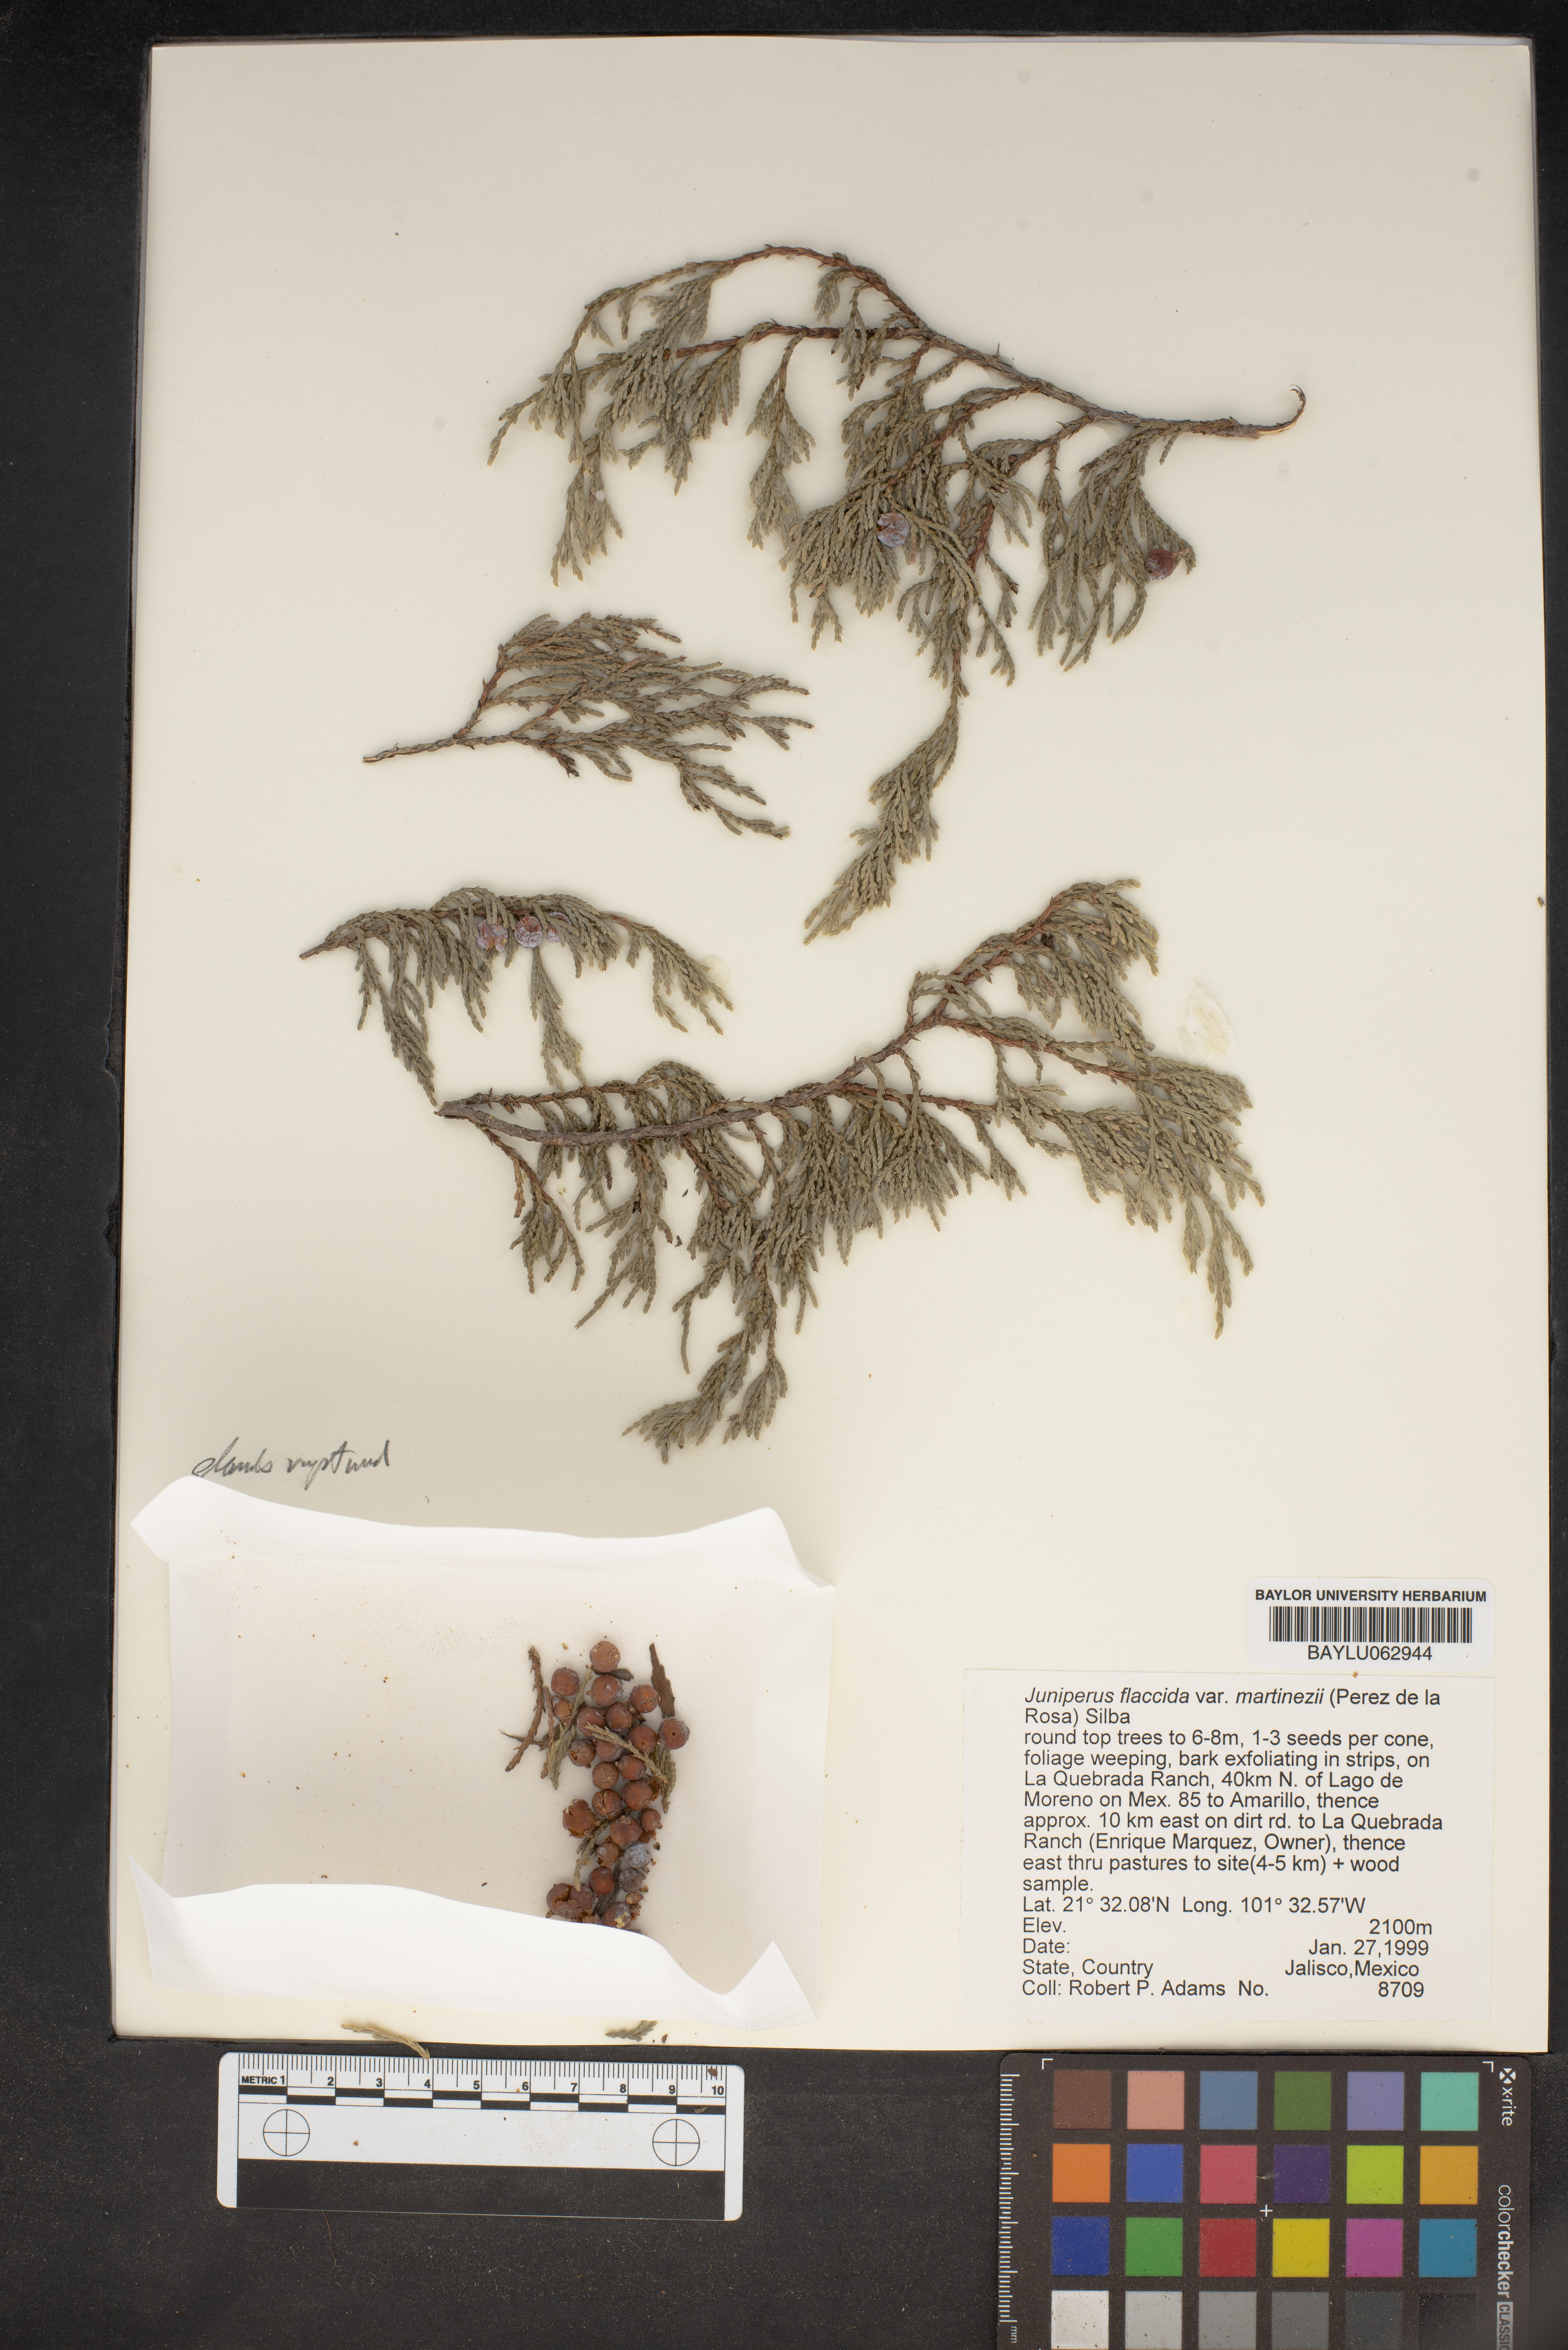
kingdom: Plantae
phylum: Tracheophyta
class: Pinopsida
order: Pinales
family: Cupressaceae
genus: Juniperus
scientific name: Juniperus flaccida
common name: Drooping juniper
